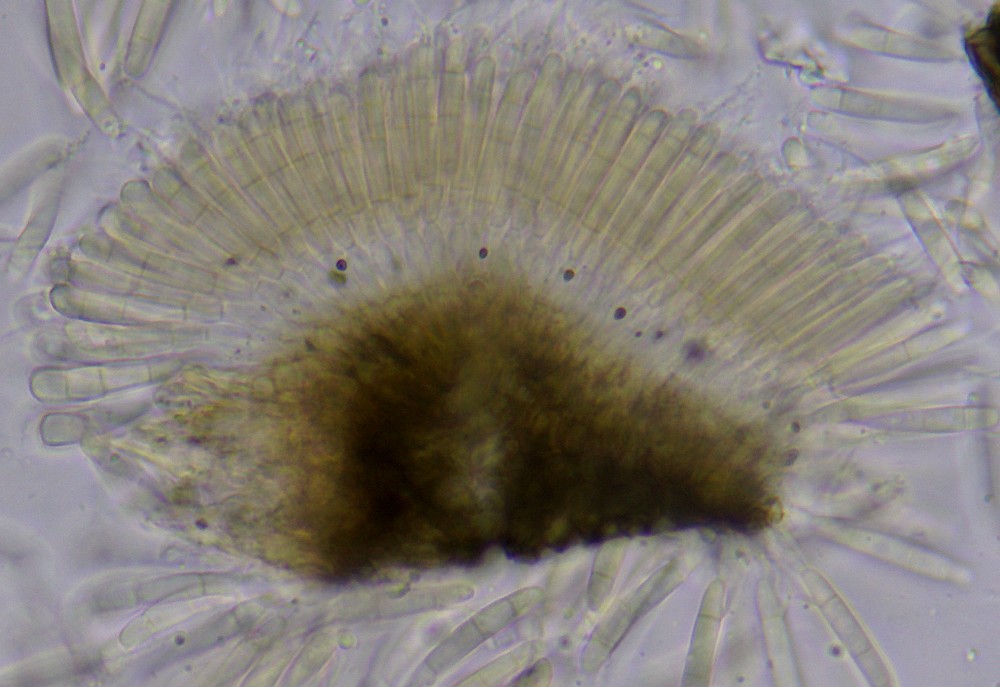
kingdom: Fungi
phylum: Ascomycota
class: Sordariomycetes
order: Amphisphaeriales
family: Discosiaceae
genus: Discosia
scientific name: Discosia artocreas
